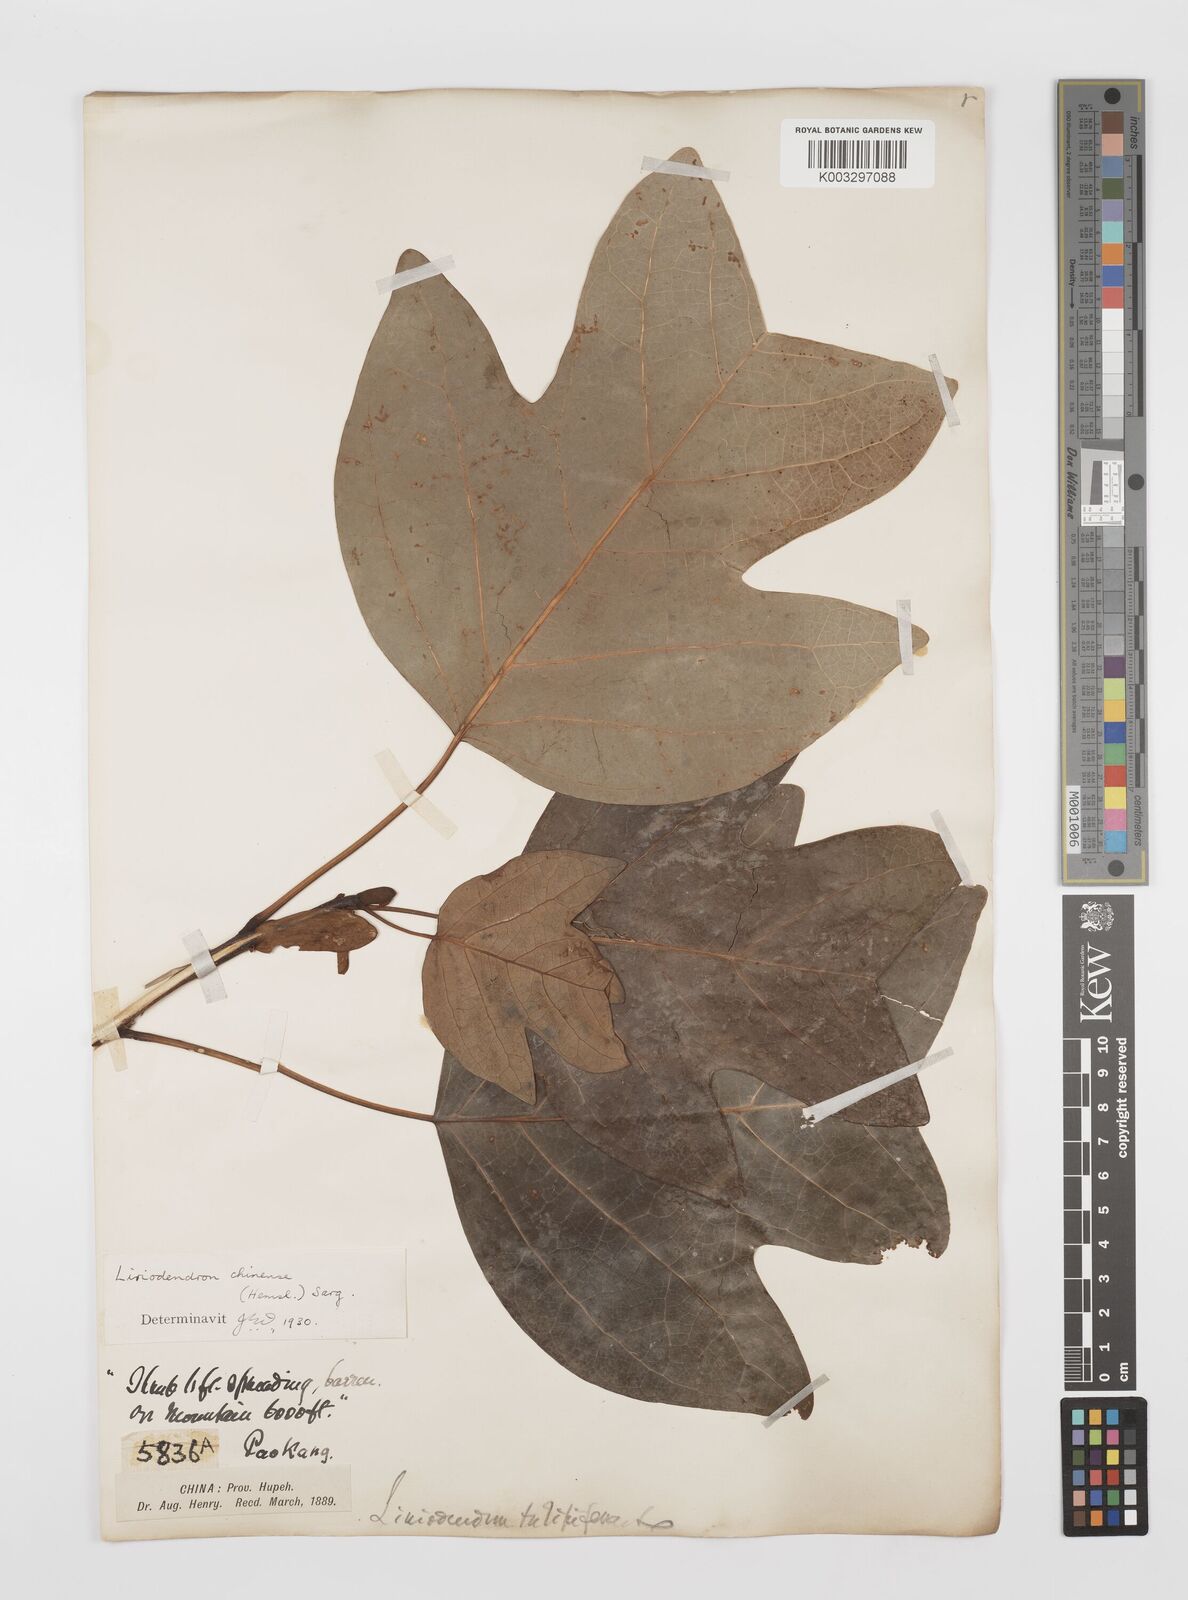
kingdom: Plantae
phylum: Tracheophyta
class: Magnoliopsida
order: Magnoliales
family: Magnoliaceae
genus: Liriodendron
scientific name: Liriodendron chinense
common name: Chinese tuliptree
